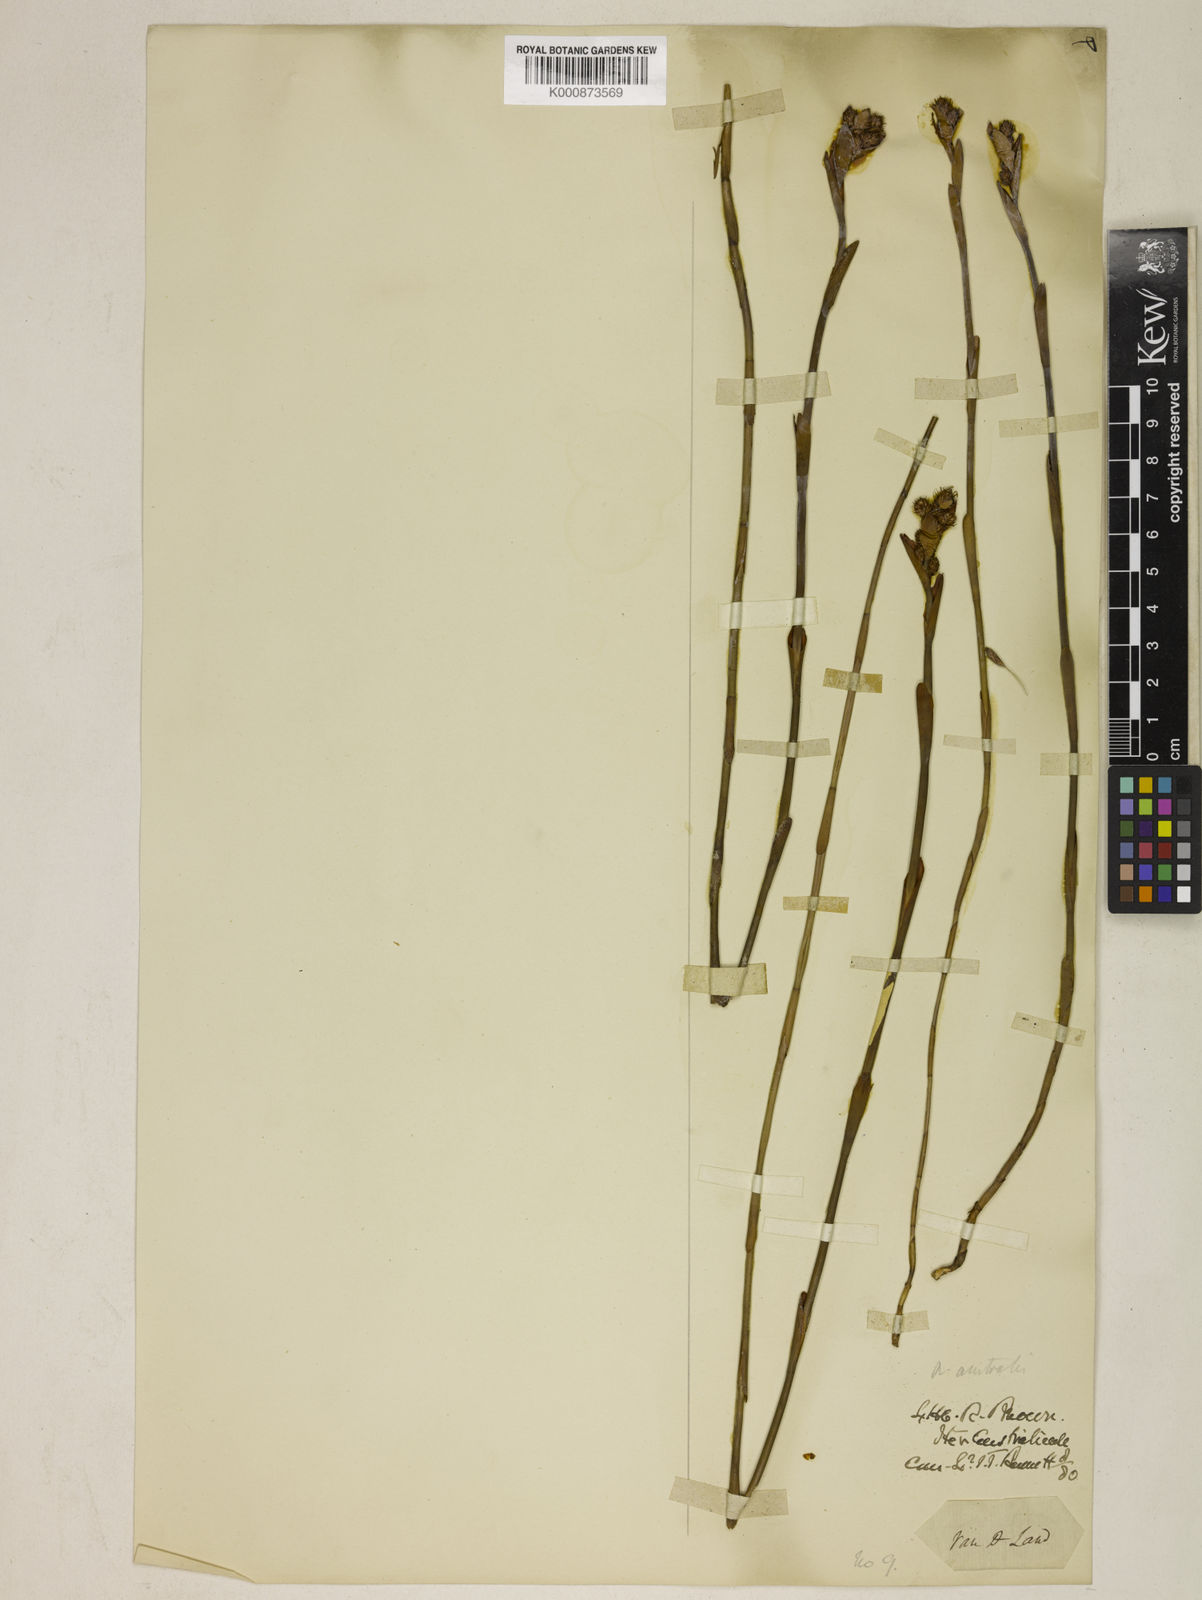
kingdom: Plantae
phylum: Tracheophyta
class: Liliopsida
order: Poales
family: Restionaceae
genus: Baloskion
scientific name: Baloskion australe
